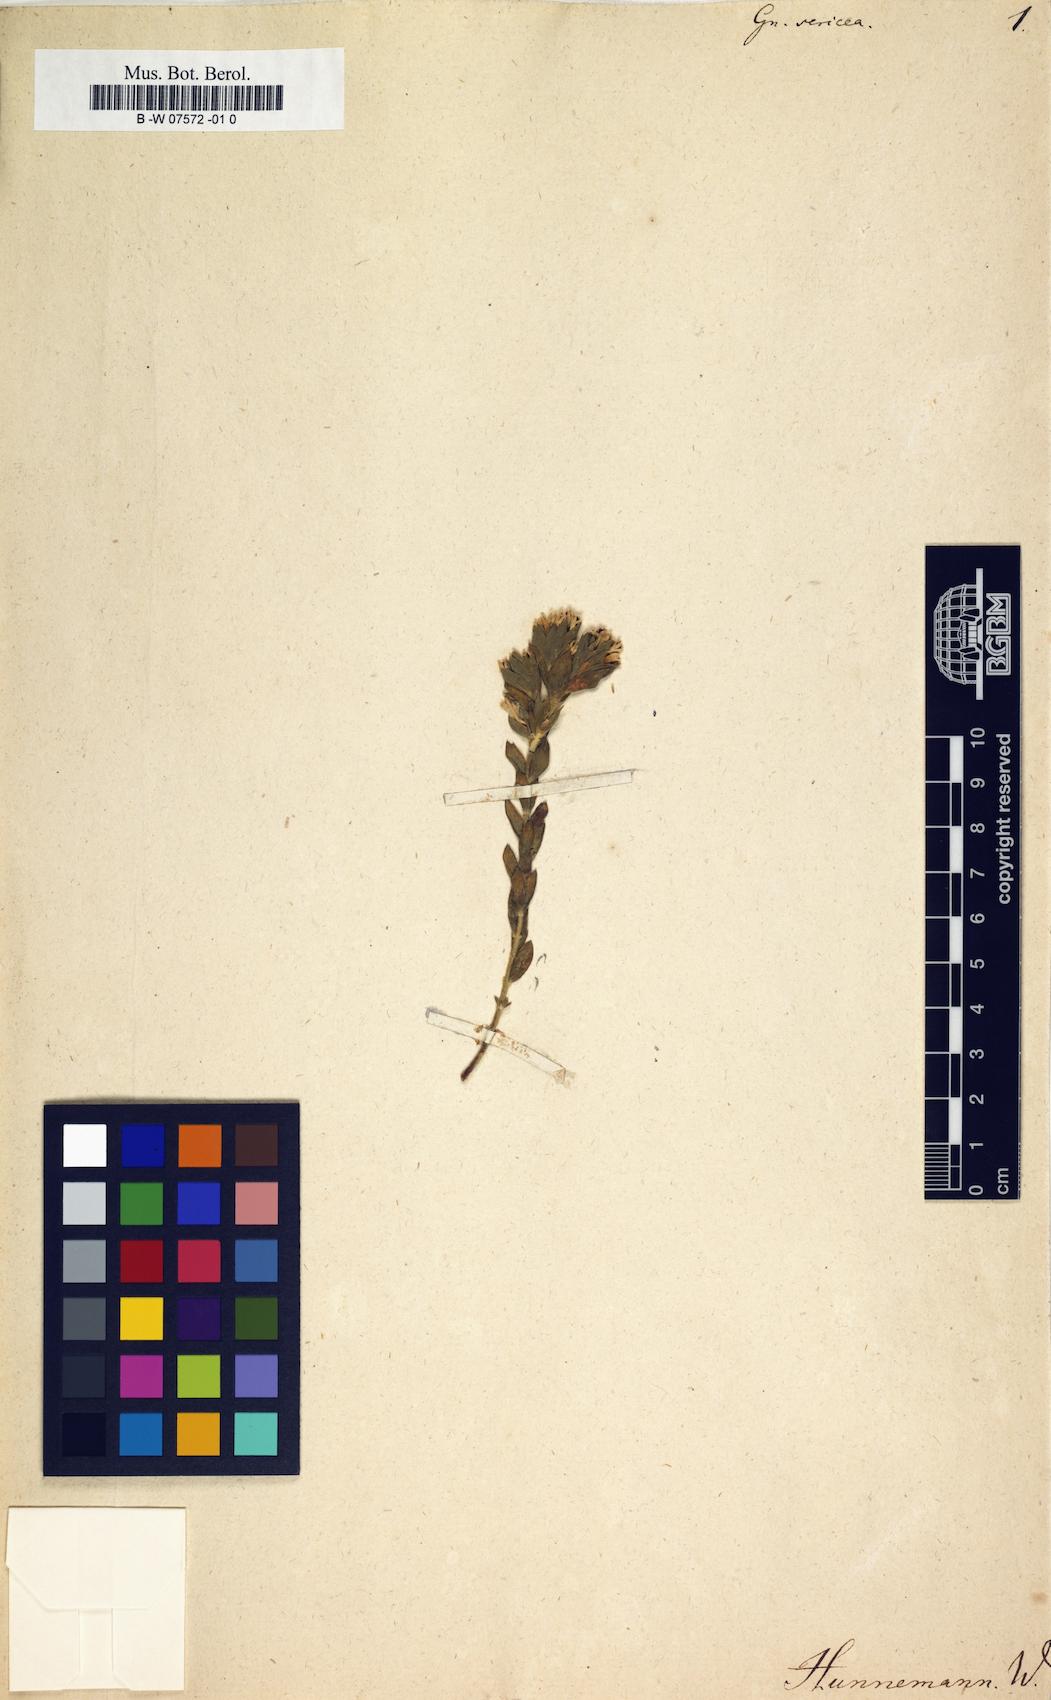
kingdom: Plantae
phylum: Tracheophyta
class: Magnoliopsida
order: Malvales
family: Thymelaeaceae
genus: Gnidia
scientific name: Gnidia sericea
